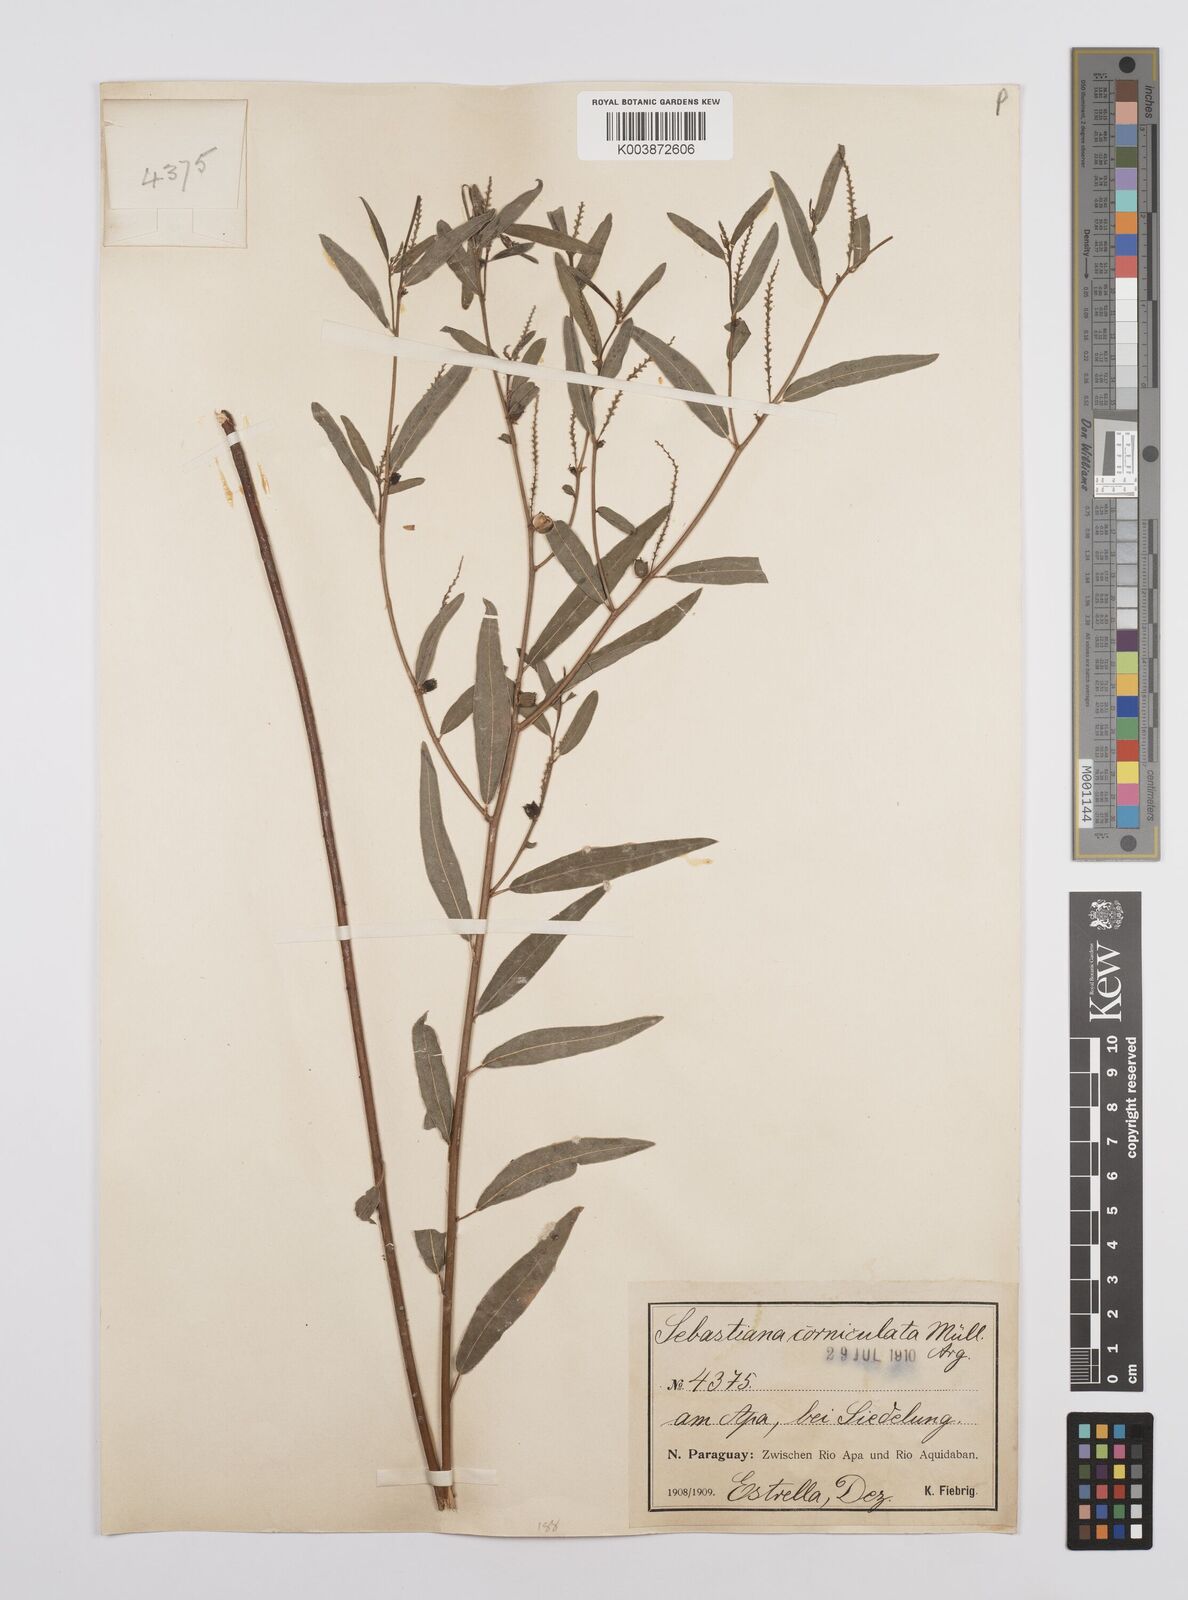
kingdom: Plantae
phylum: Tracheophyta
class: Magnoliopsida
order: Malpighiales
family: Euphorbiaceae
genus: Microstachys
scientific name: Microstachys corniculata
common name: Hato tejas
